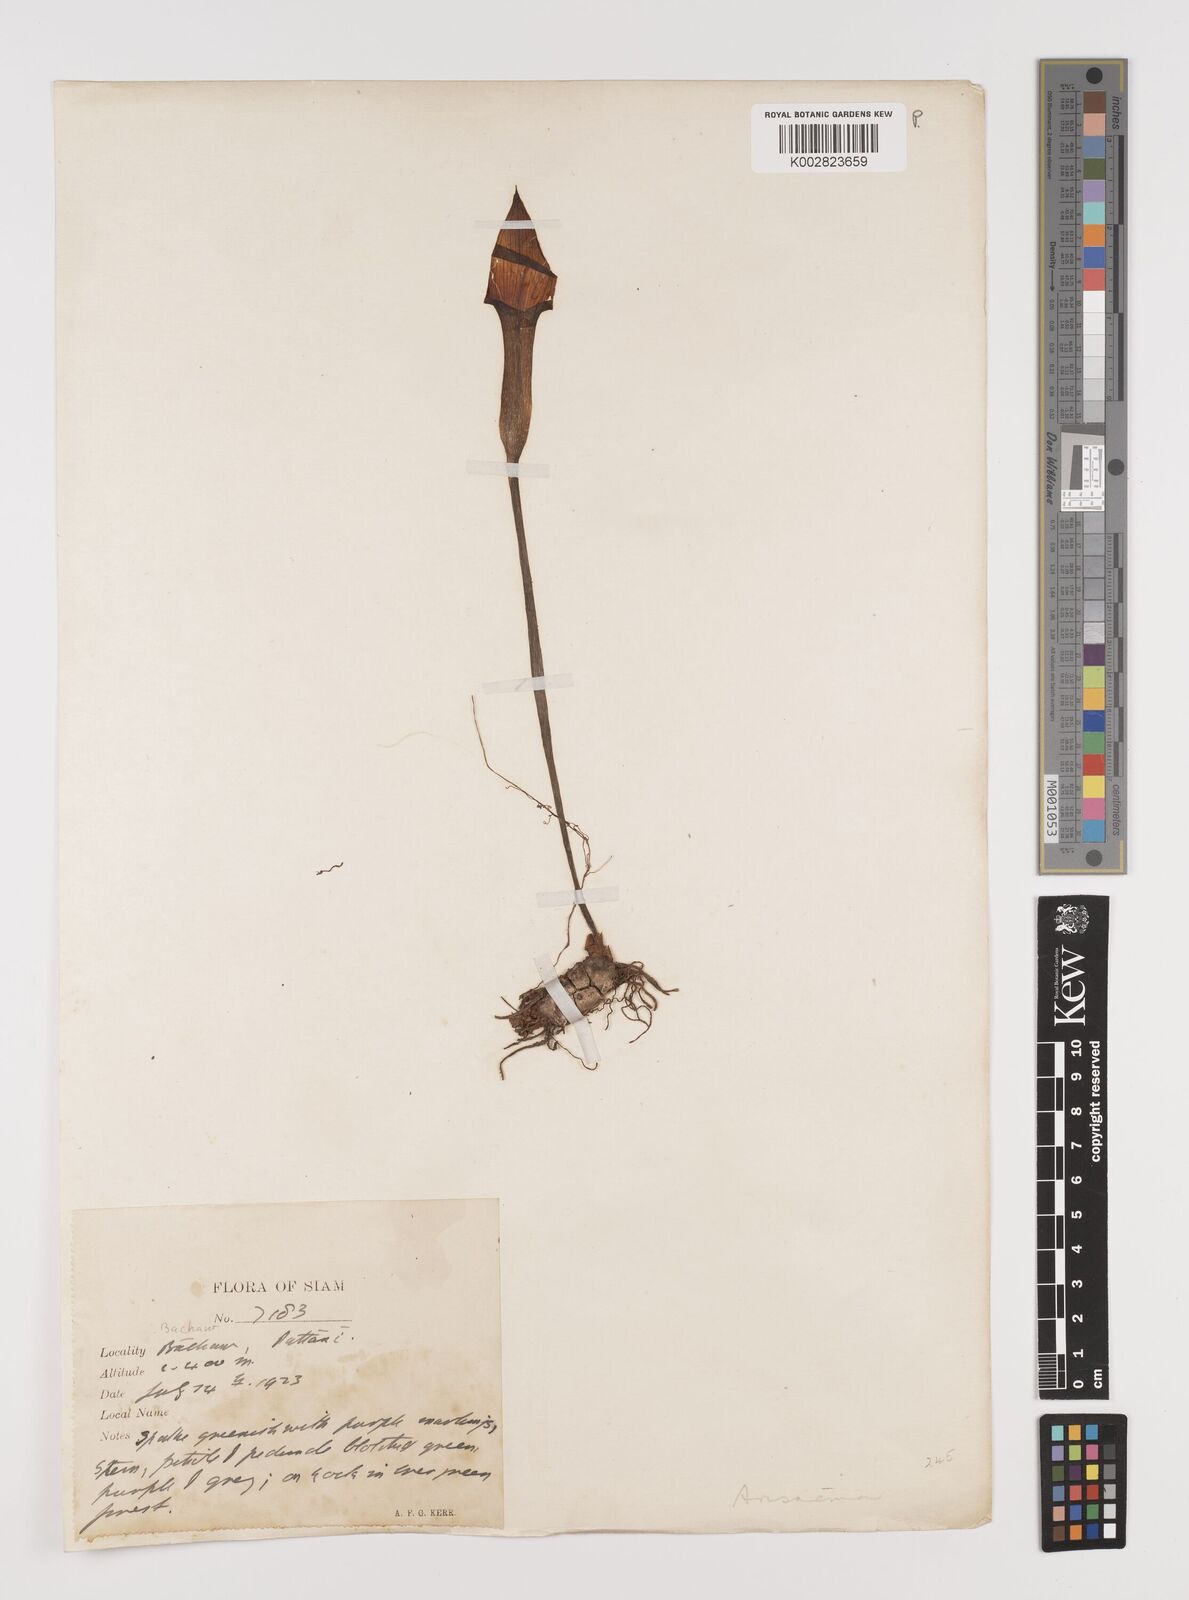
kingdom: Plantae
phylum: Tracheophyta
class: Liliopsida
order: Alismatales
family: Araceae
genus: Arisaema
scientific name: Arisaema
